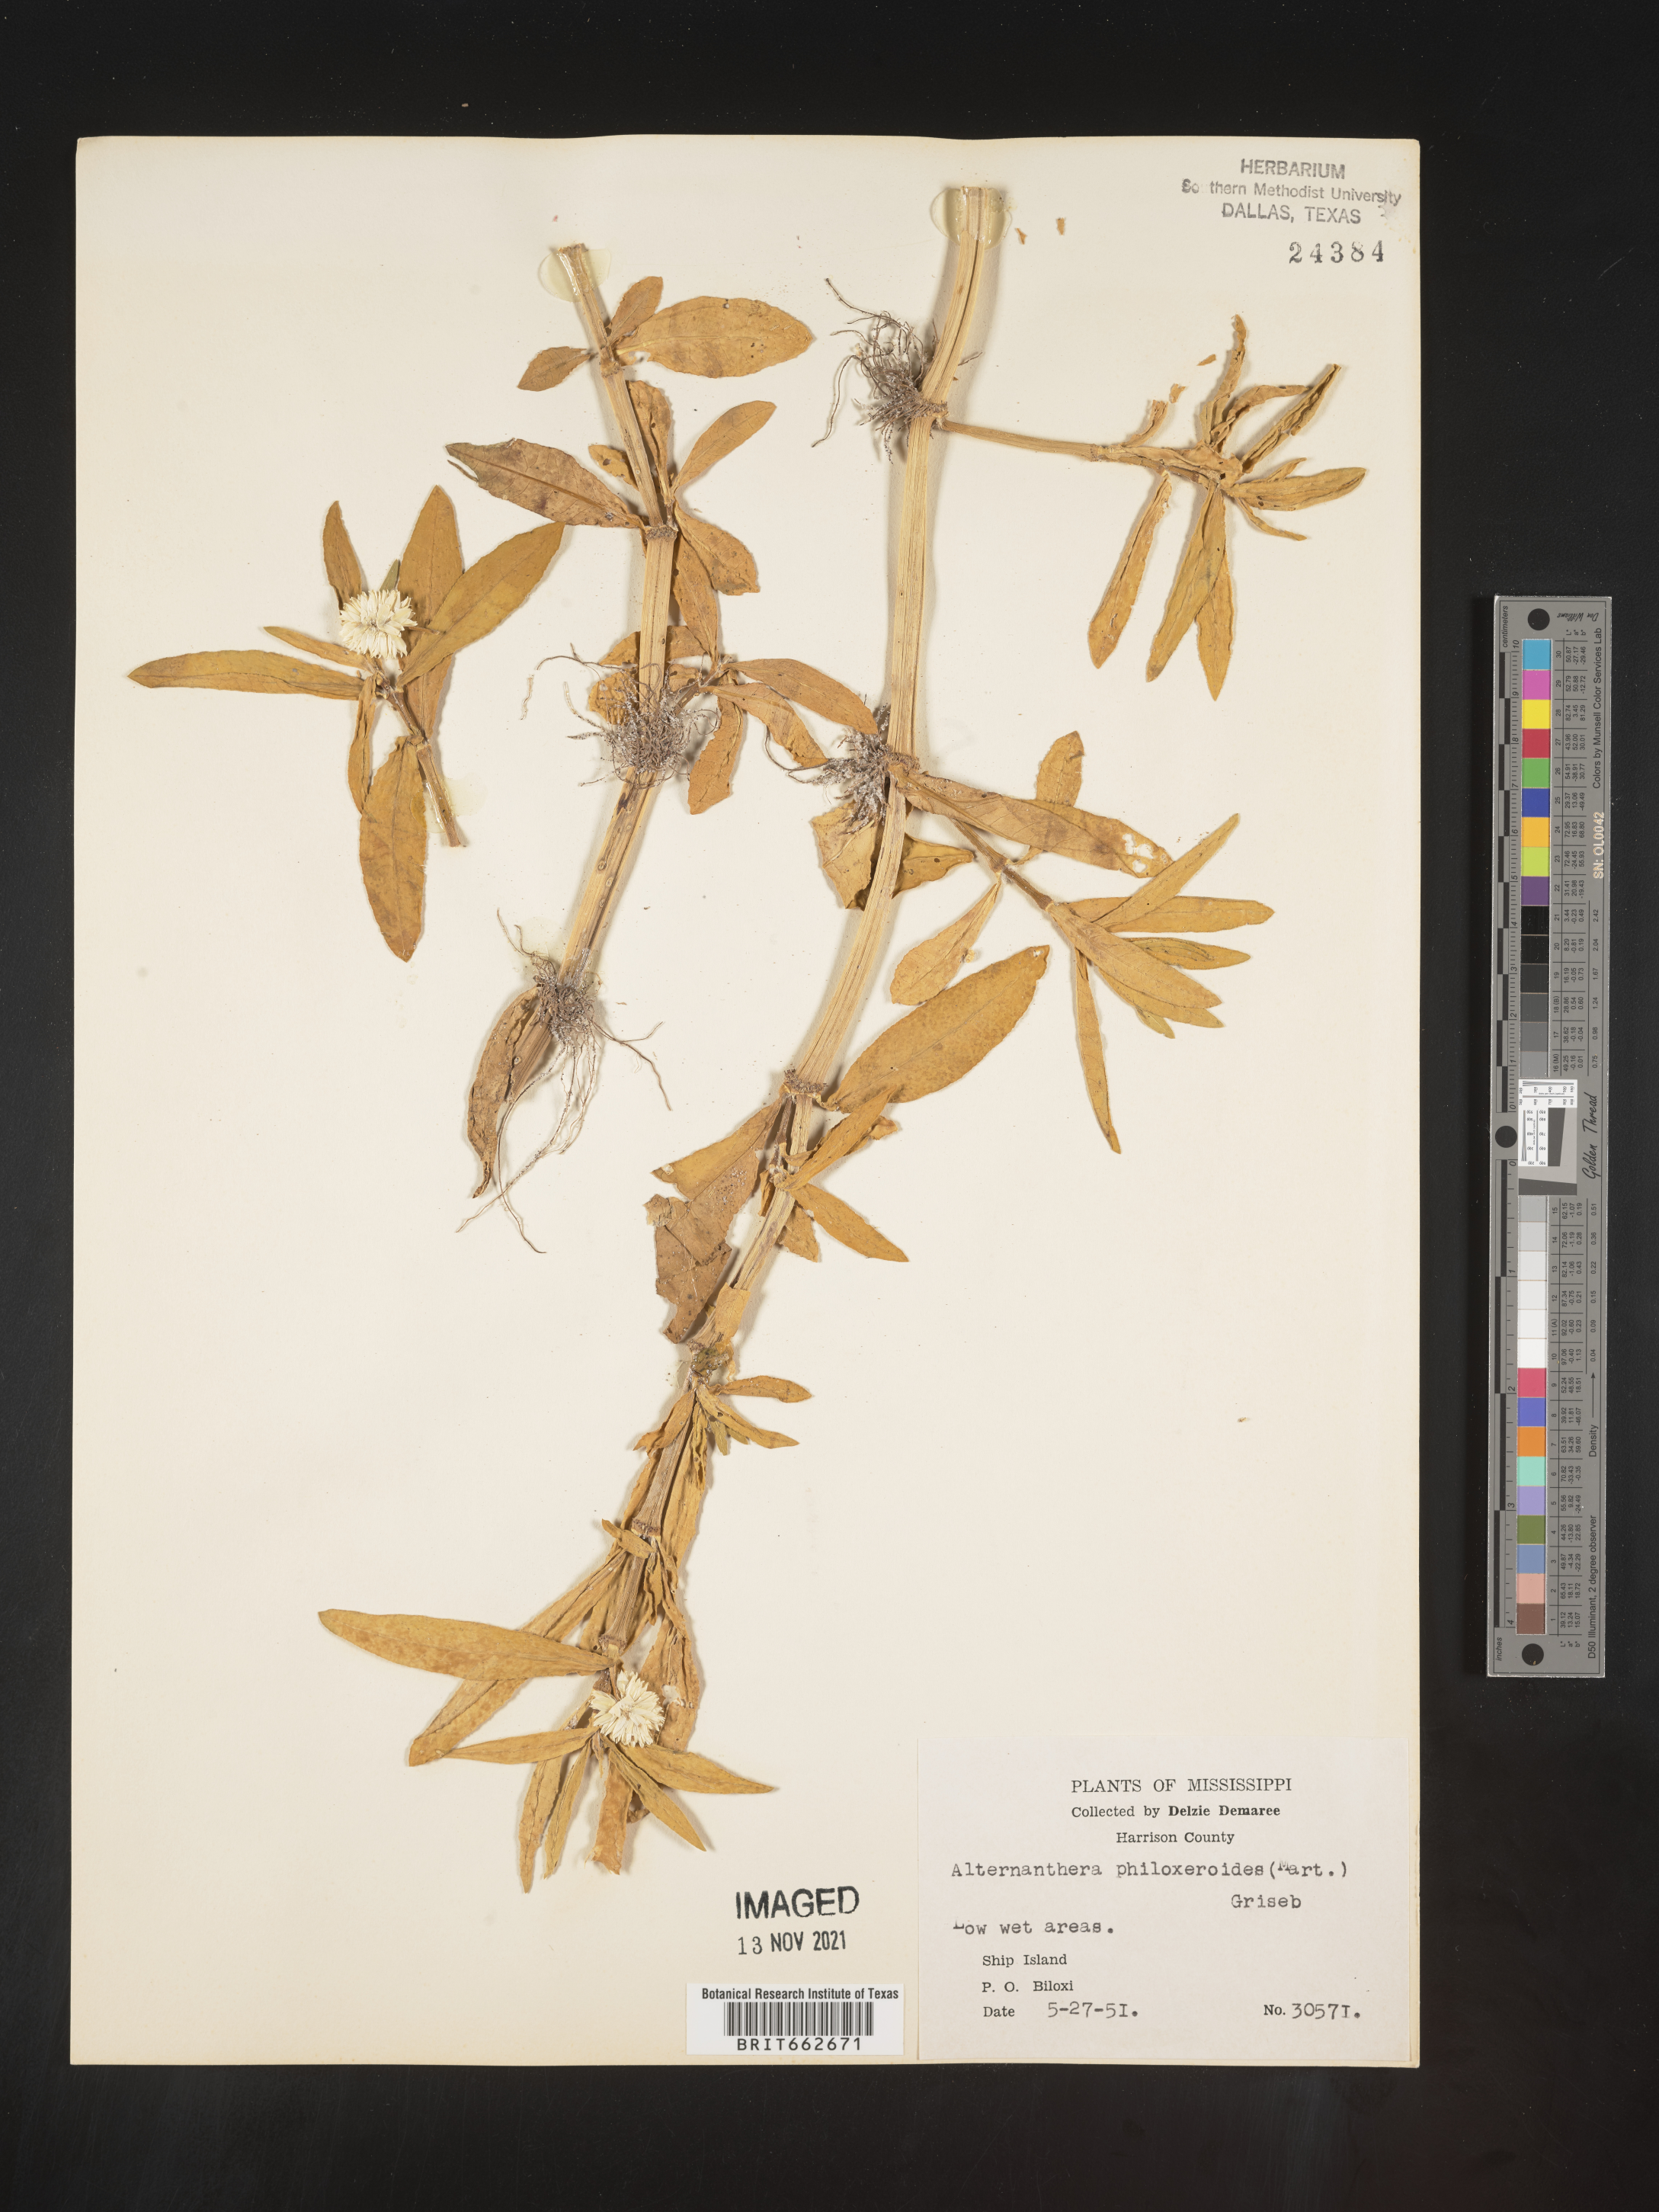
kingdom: Plantae
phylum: Tracheophyta
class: Magnoliopsida
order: Caryophyllales
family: Amaranthaceae
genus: Alternanthera
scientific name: Alternanthera philoxeroides
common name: Alligatorweed
